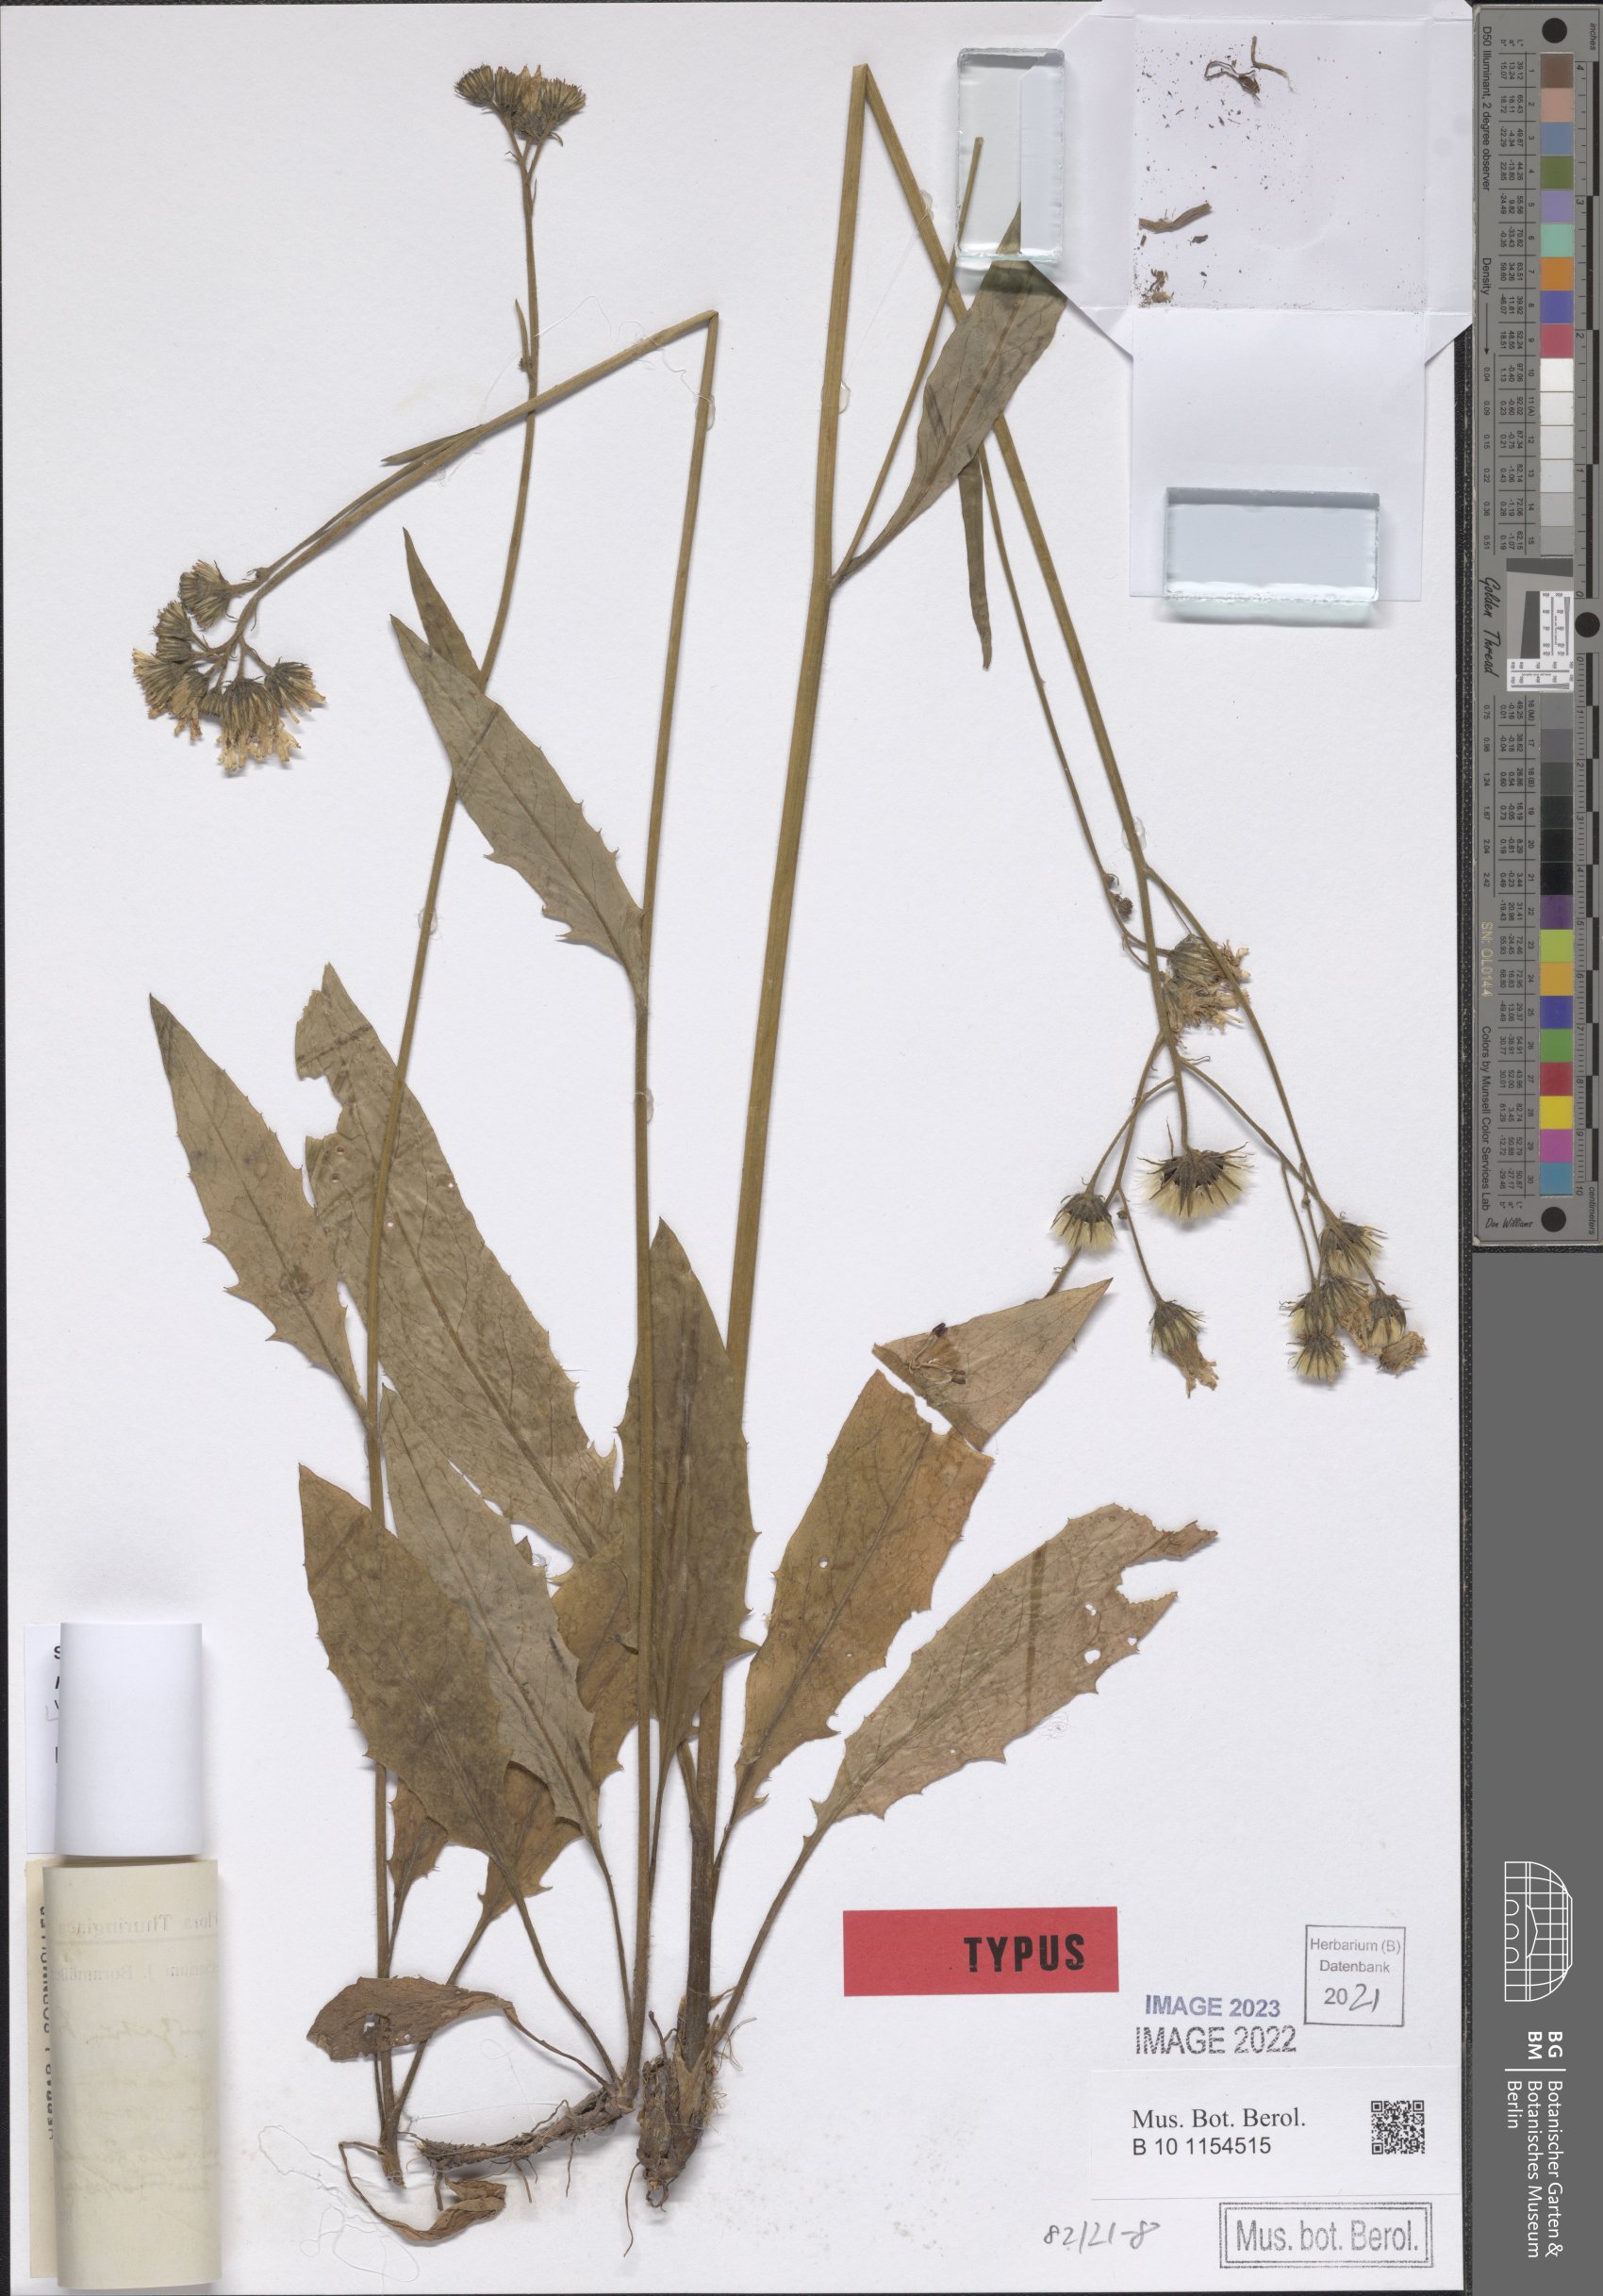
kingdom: Plantae
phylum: Tracheophyta
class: Magnoliopsida
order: Asterales
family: Asteraceae
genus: Hieracium
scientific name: Hieracium lachenalii
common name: Common hawkweed
